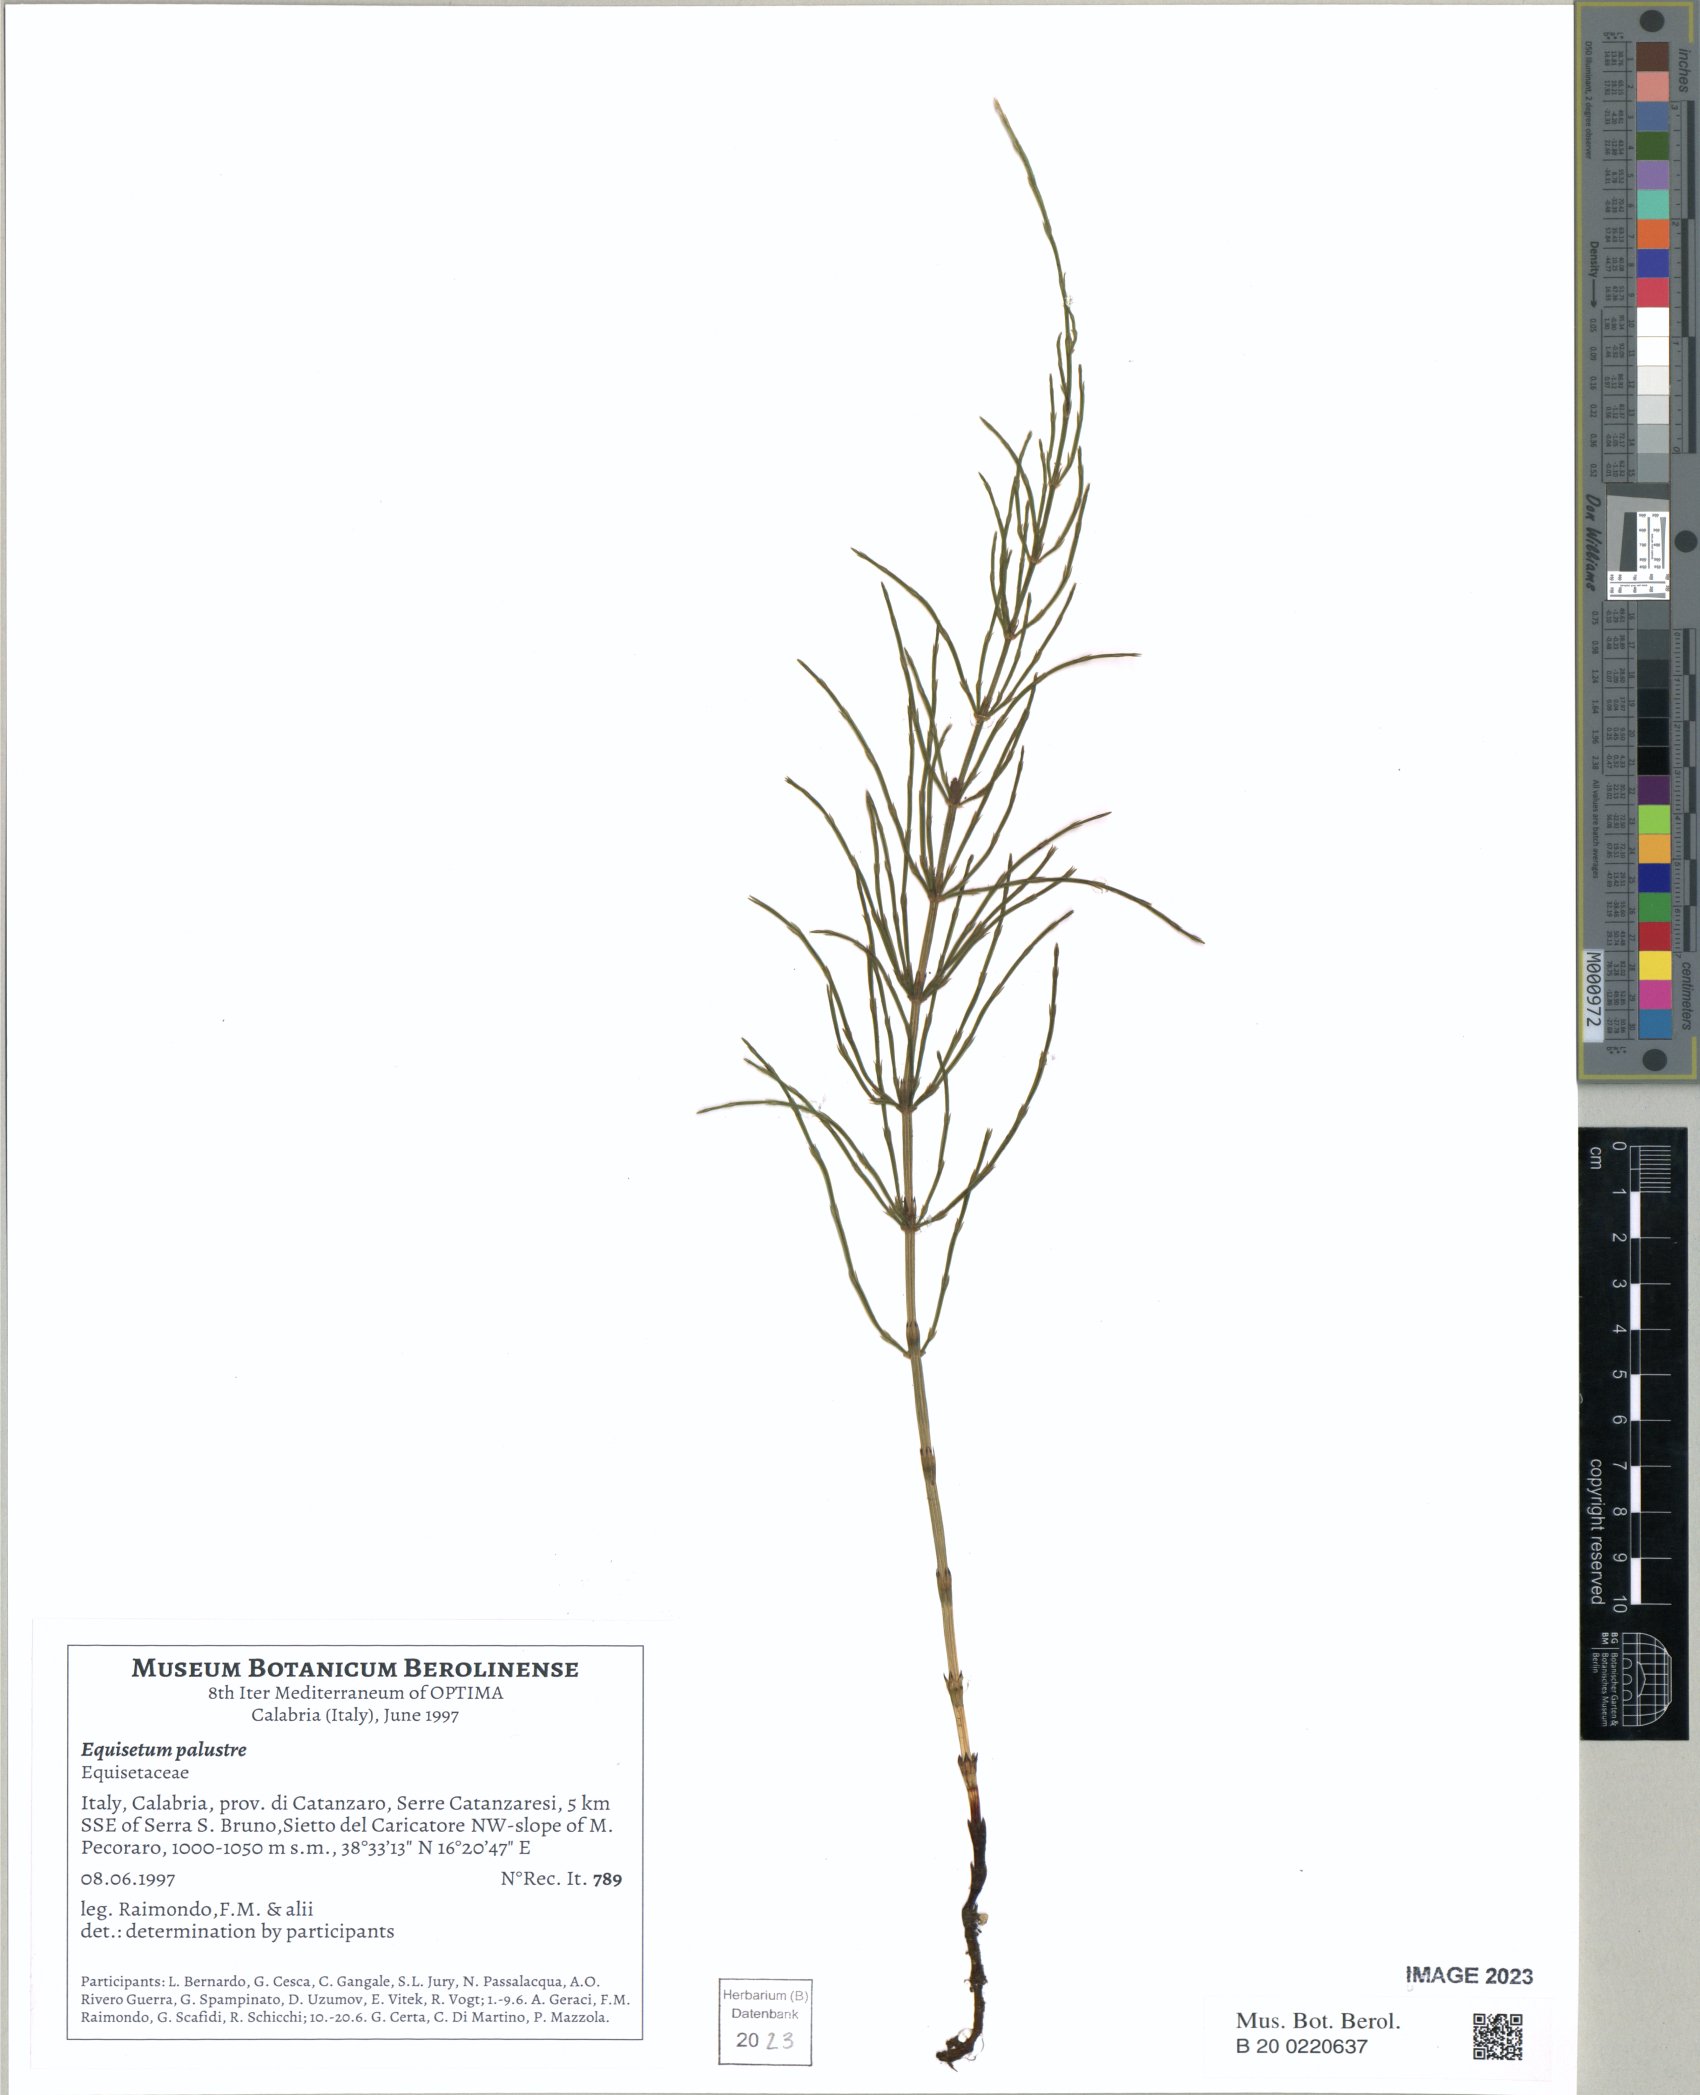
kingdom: Plantae
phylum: Tracheophyta
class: Polypodiopsida
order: Equisetales
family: Equisetaceae
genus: Equisetum
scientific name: Equisetum palustre
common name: Marsh horsetail
